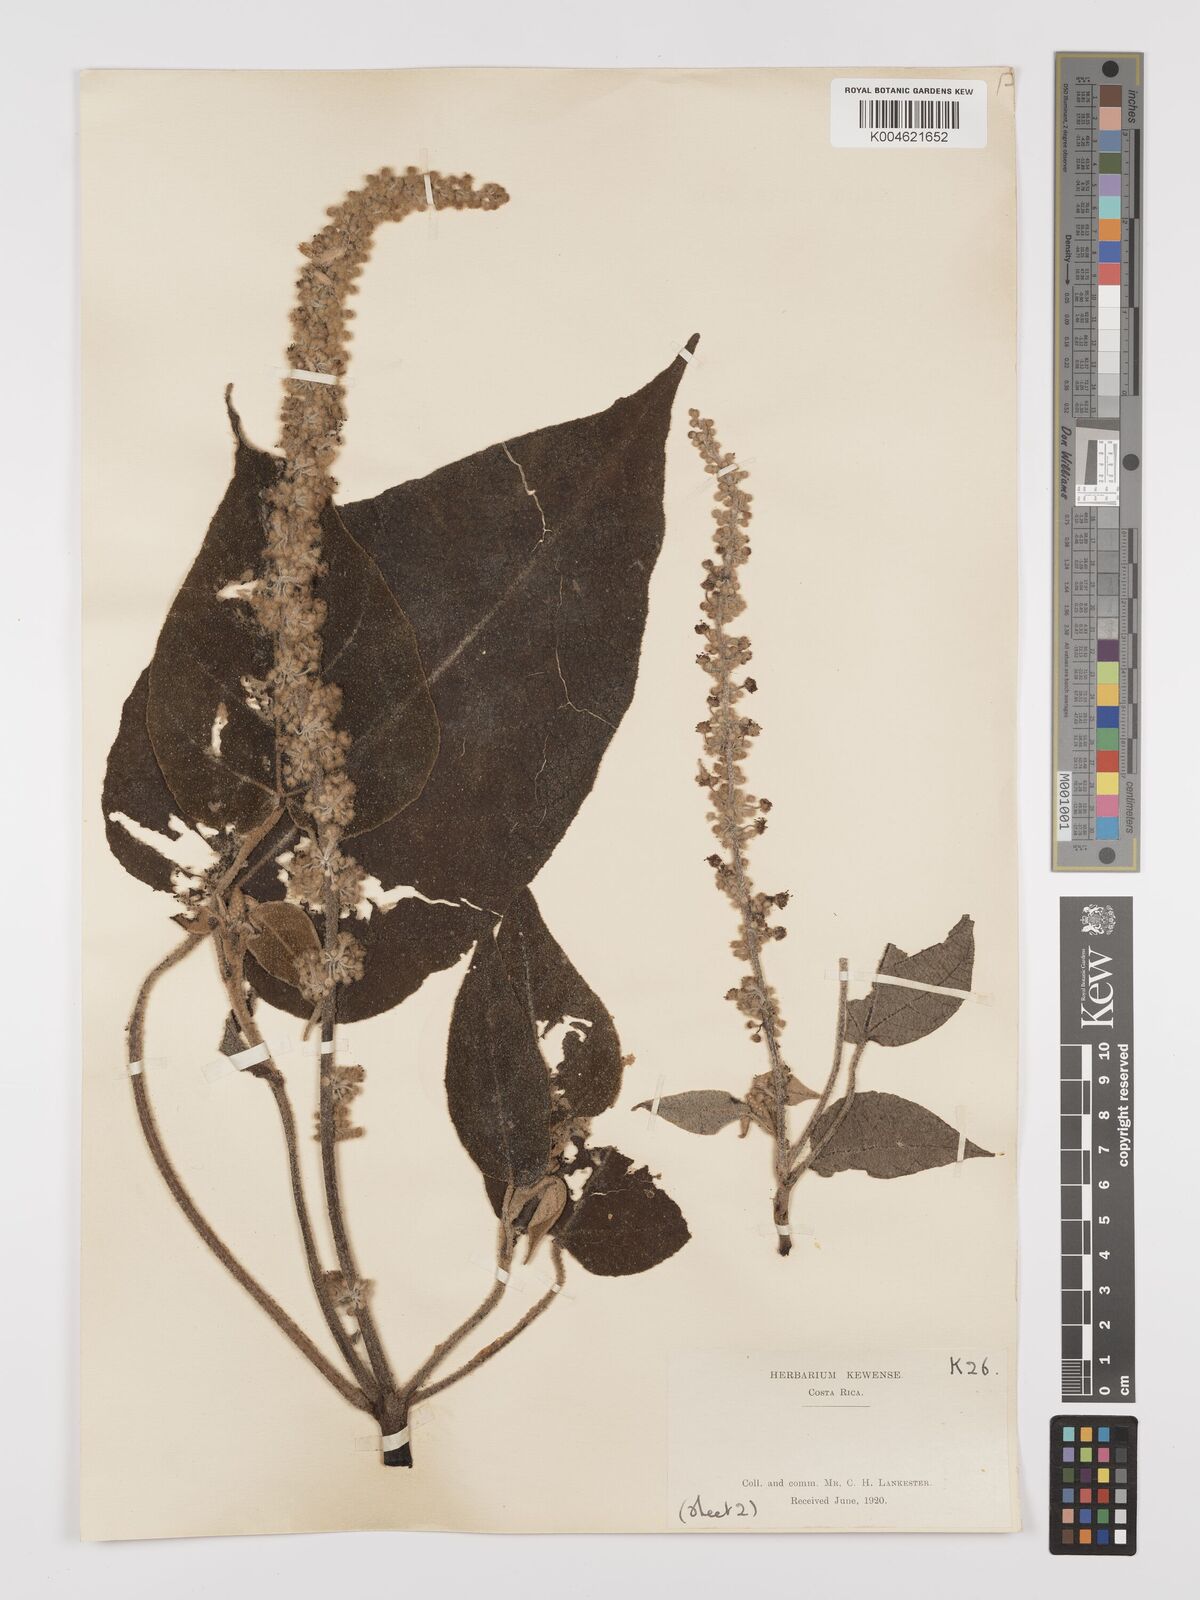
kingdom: Plantae
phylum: Tracheophyta
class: Magnoliopsida
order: Malpighiales
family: Euphorbiaceae
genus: Croton
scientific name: Croton draco
